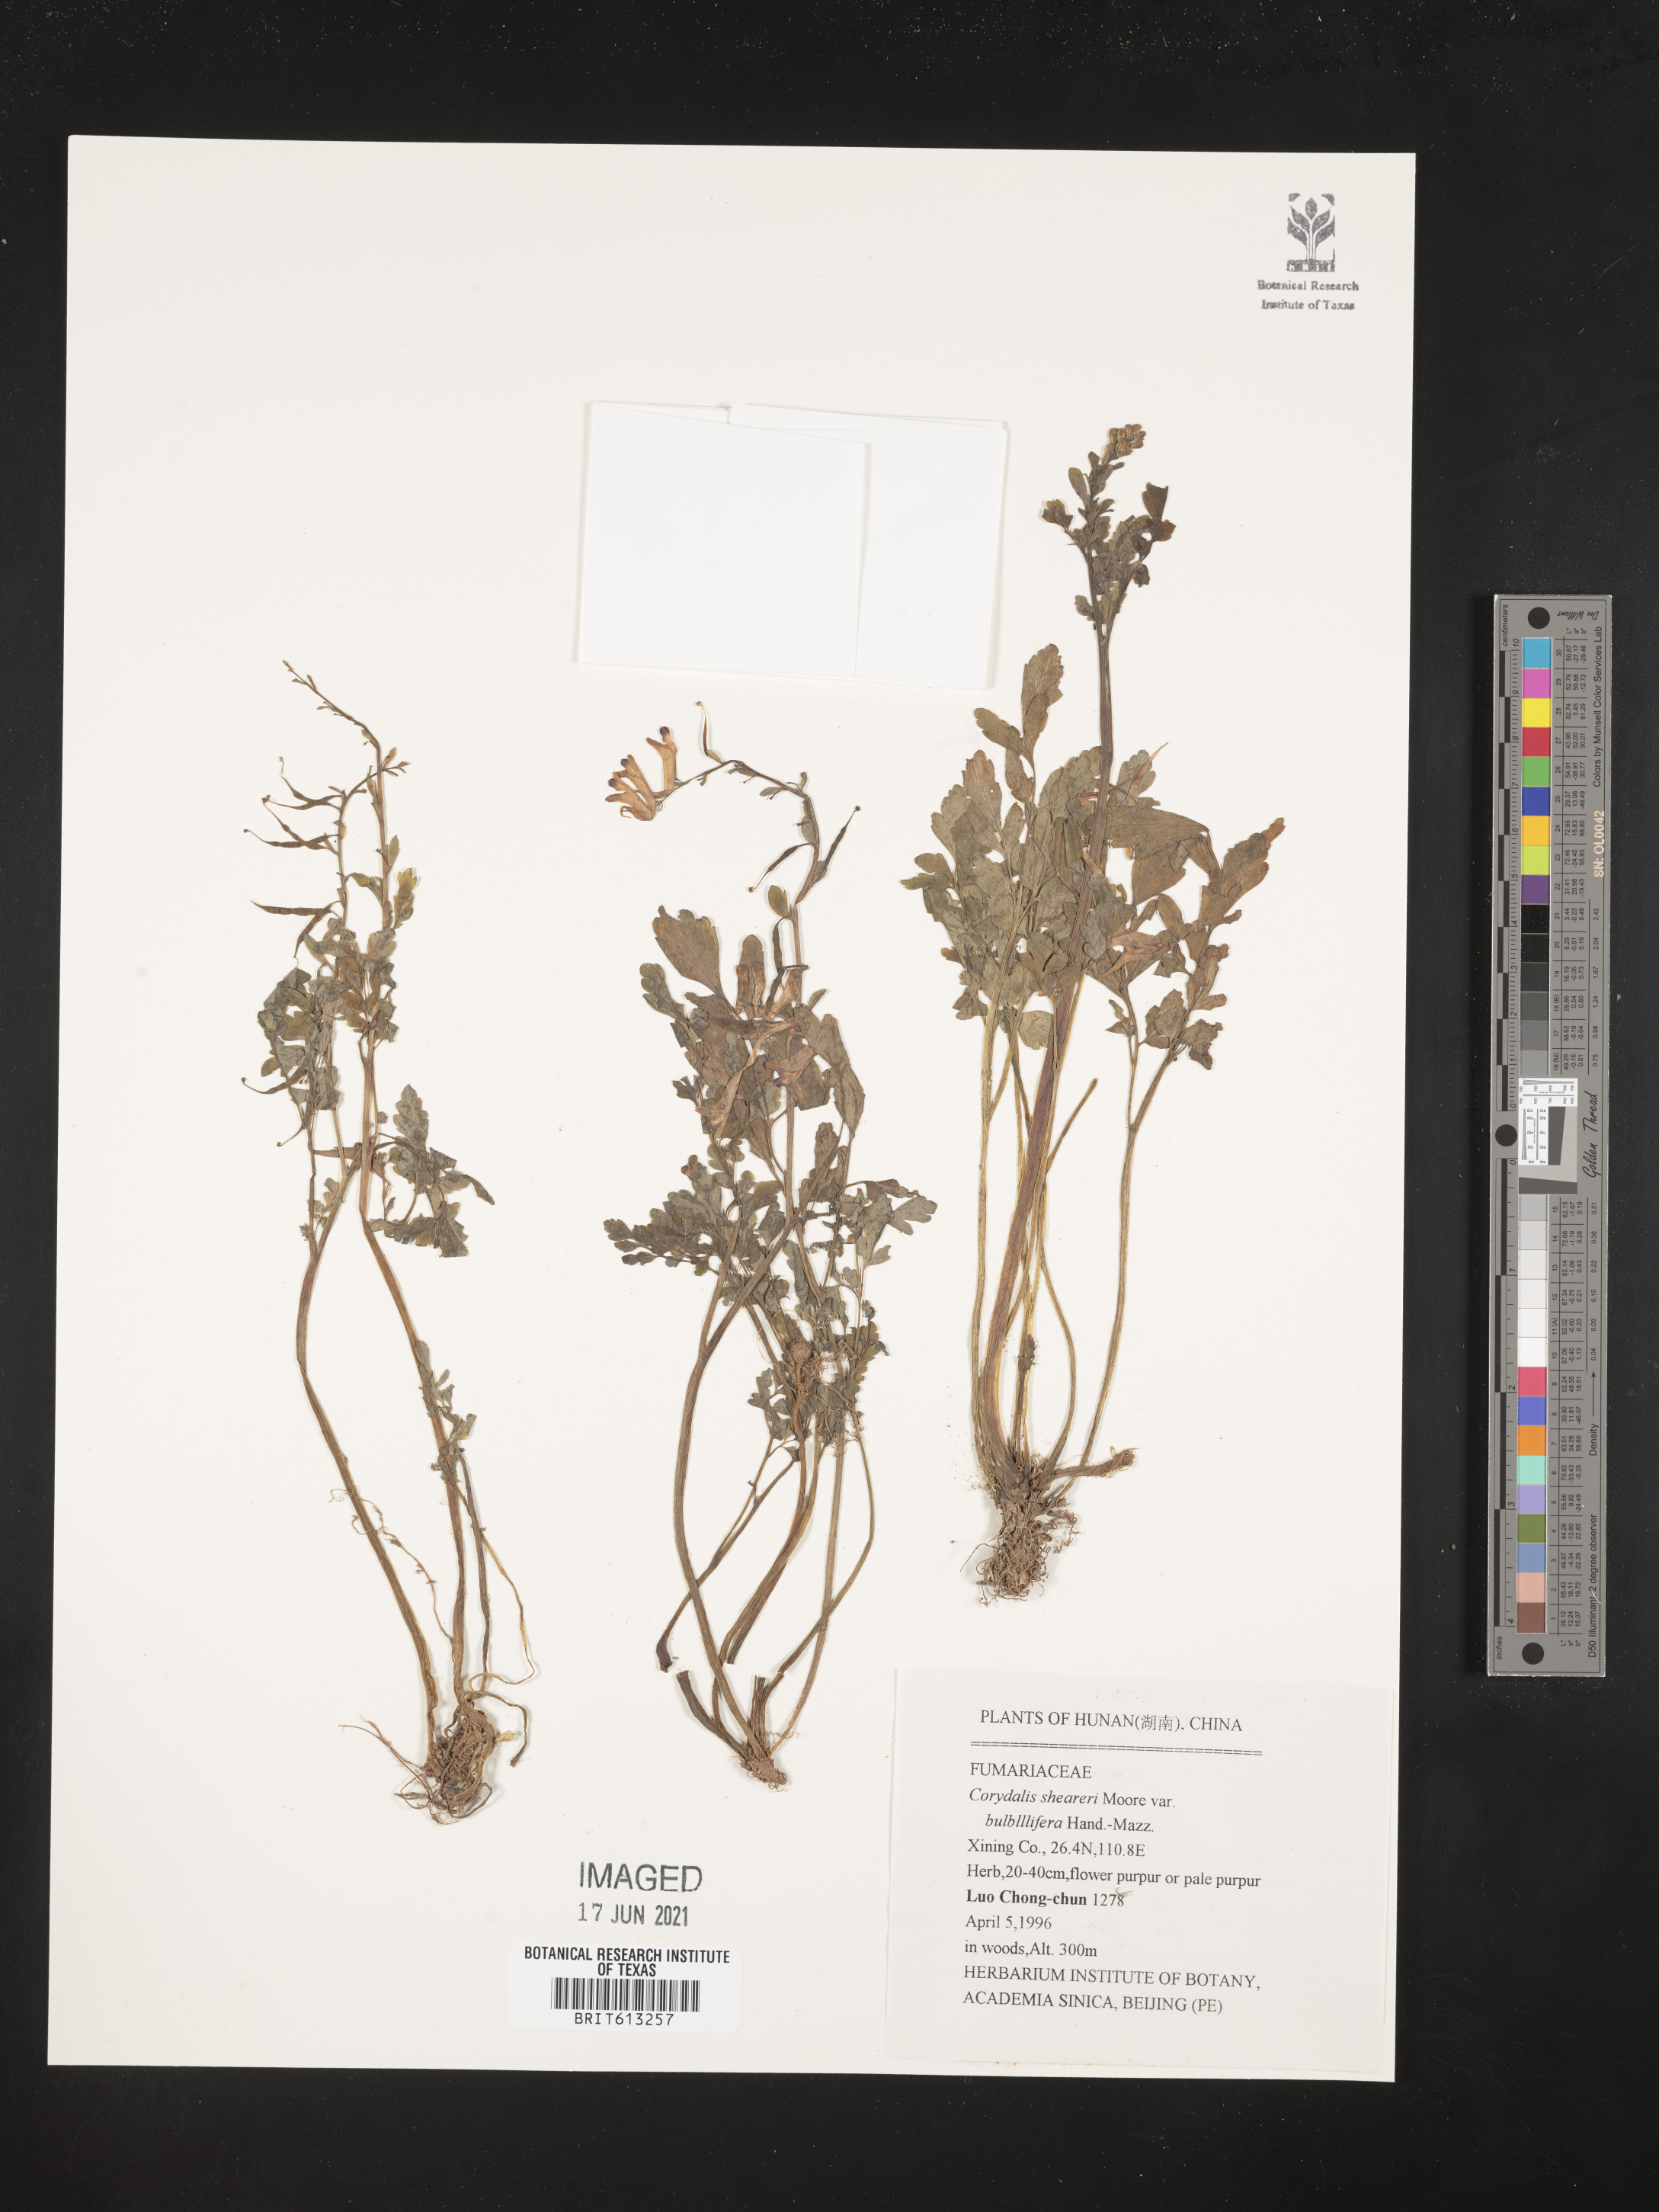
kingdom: Plantae
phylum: Tracheophyta
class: Magnoliopsida
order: Ranunculales
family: Papaveraceae
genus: Corydalis
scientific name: Corydalis sheareri
